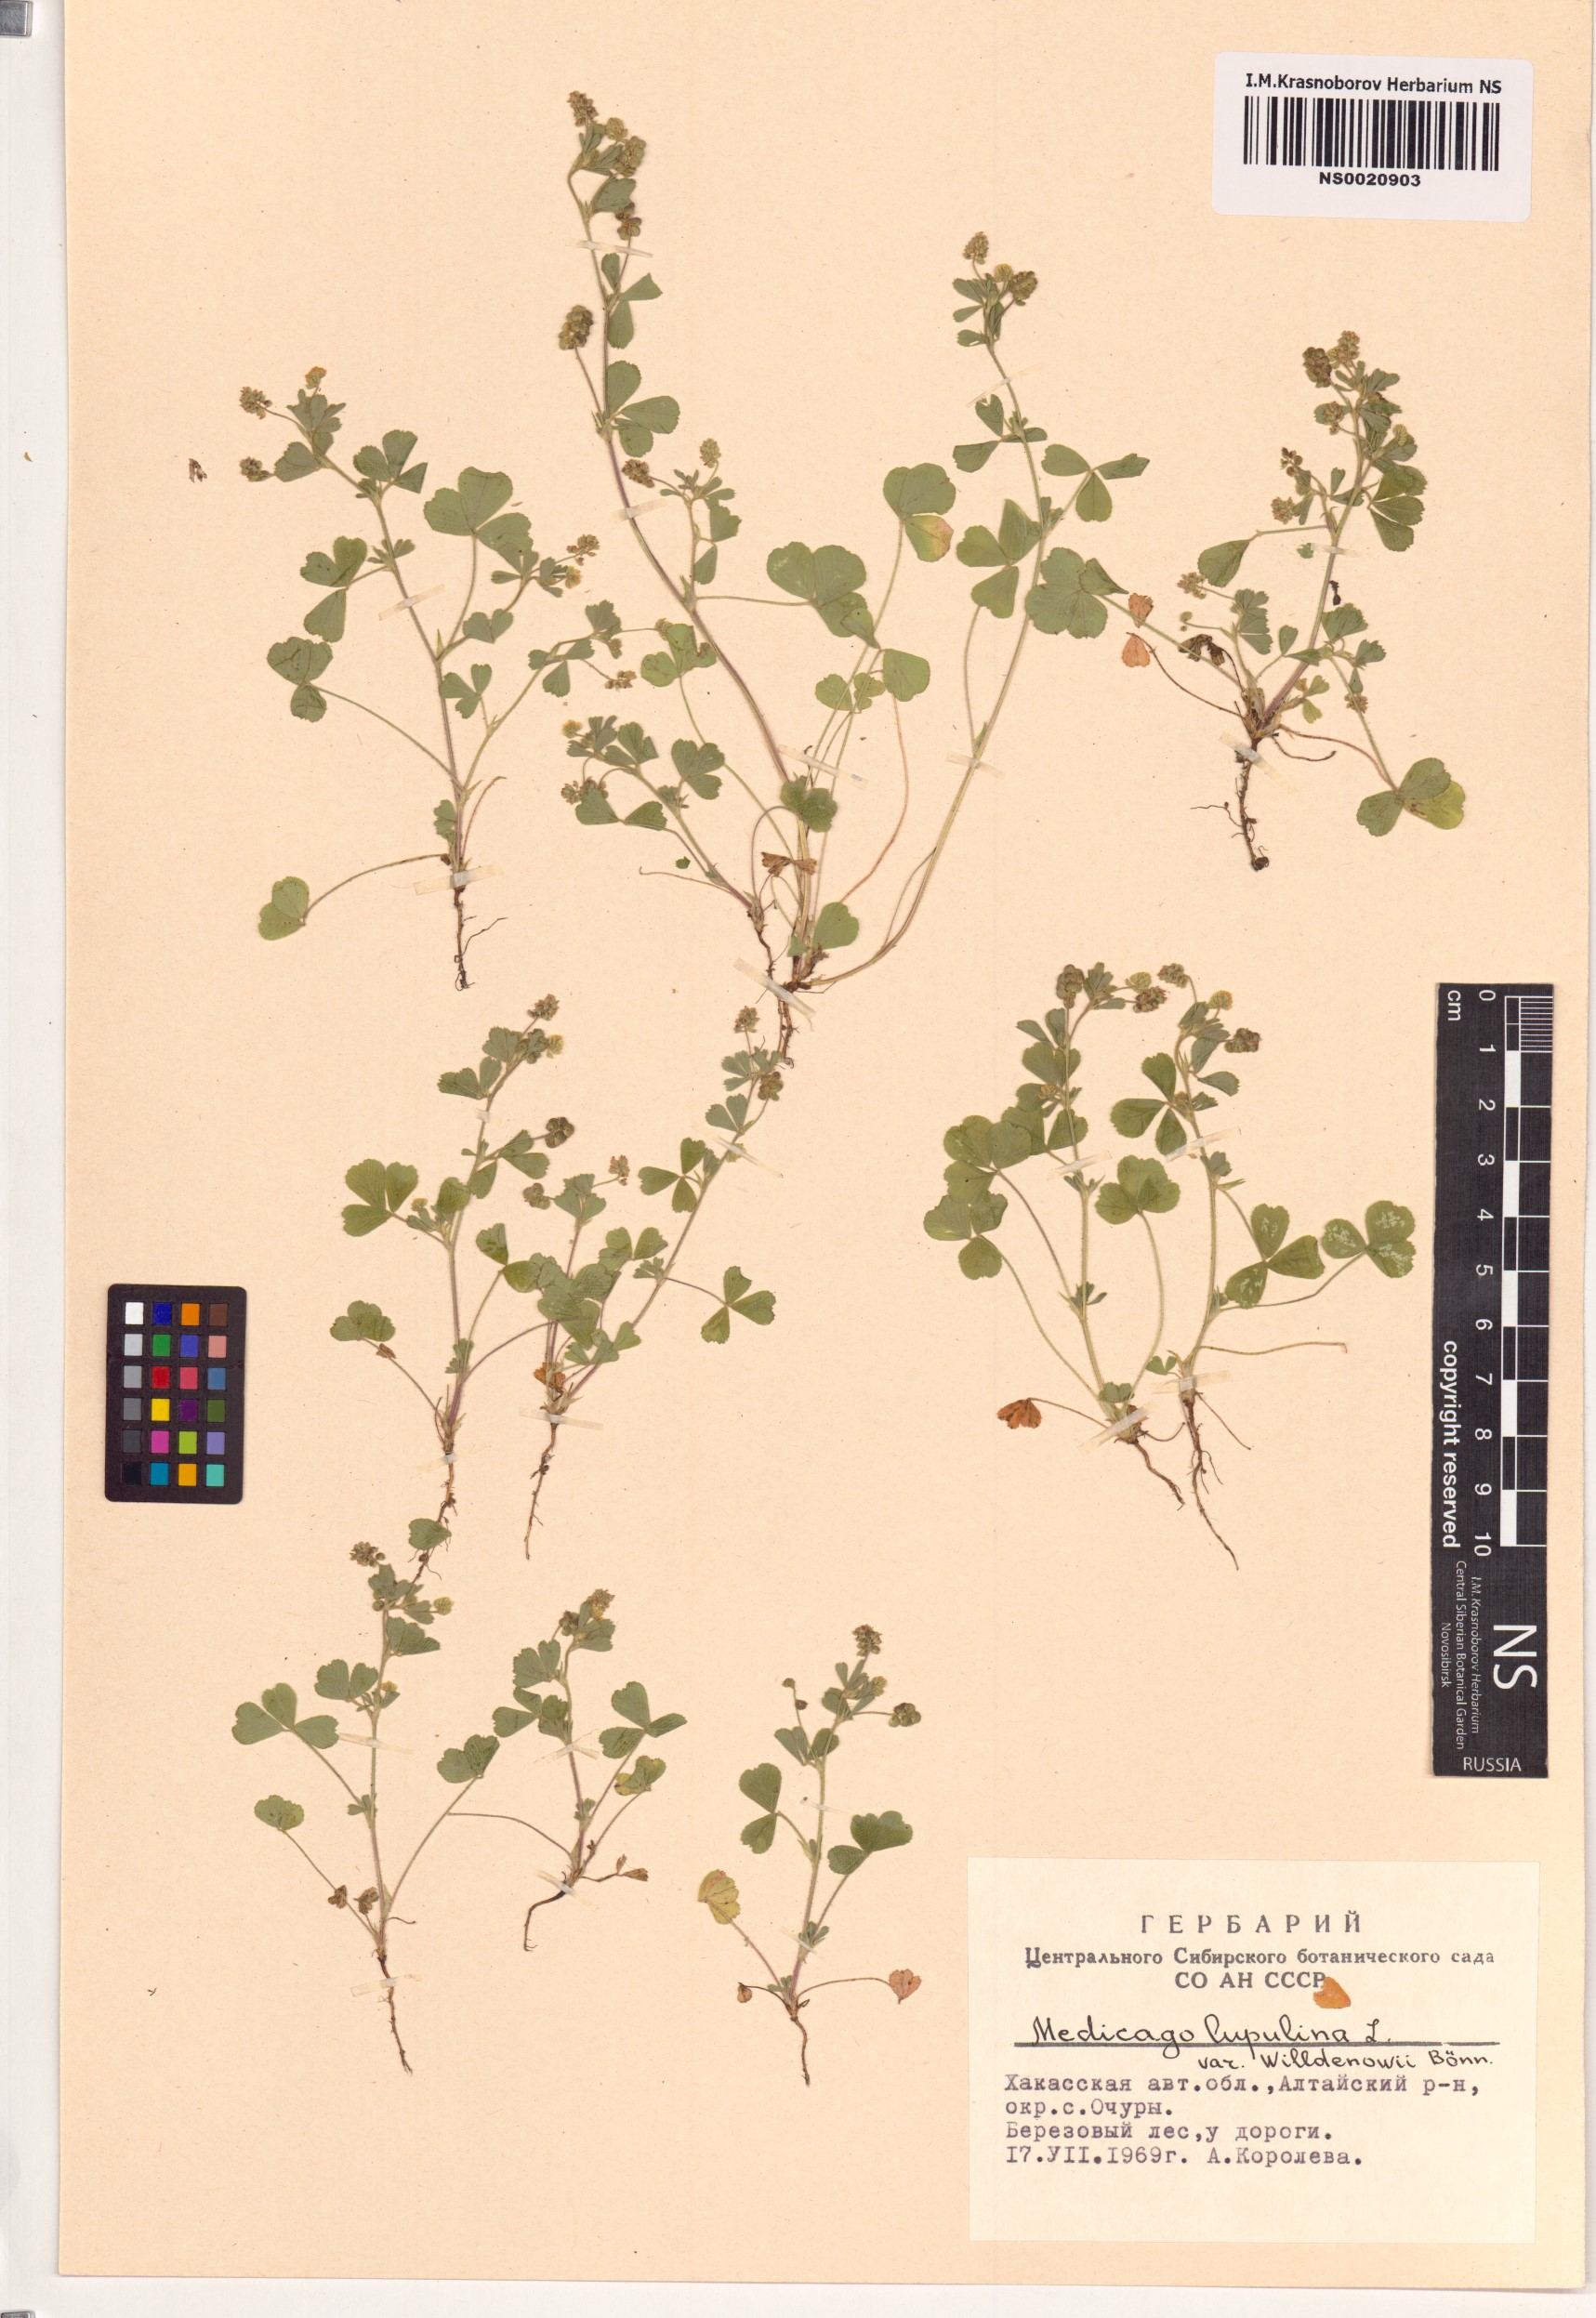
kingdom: Plantae
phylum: Tracheophyta
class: Magnoliopsida
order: Fabales
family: Fabaceae
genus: Medicago
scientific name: Medicago lupulina
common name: Black medick
